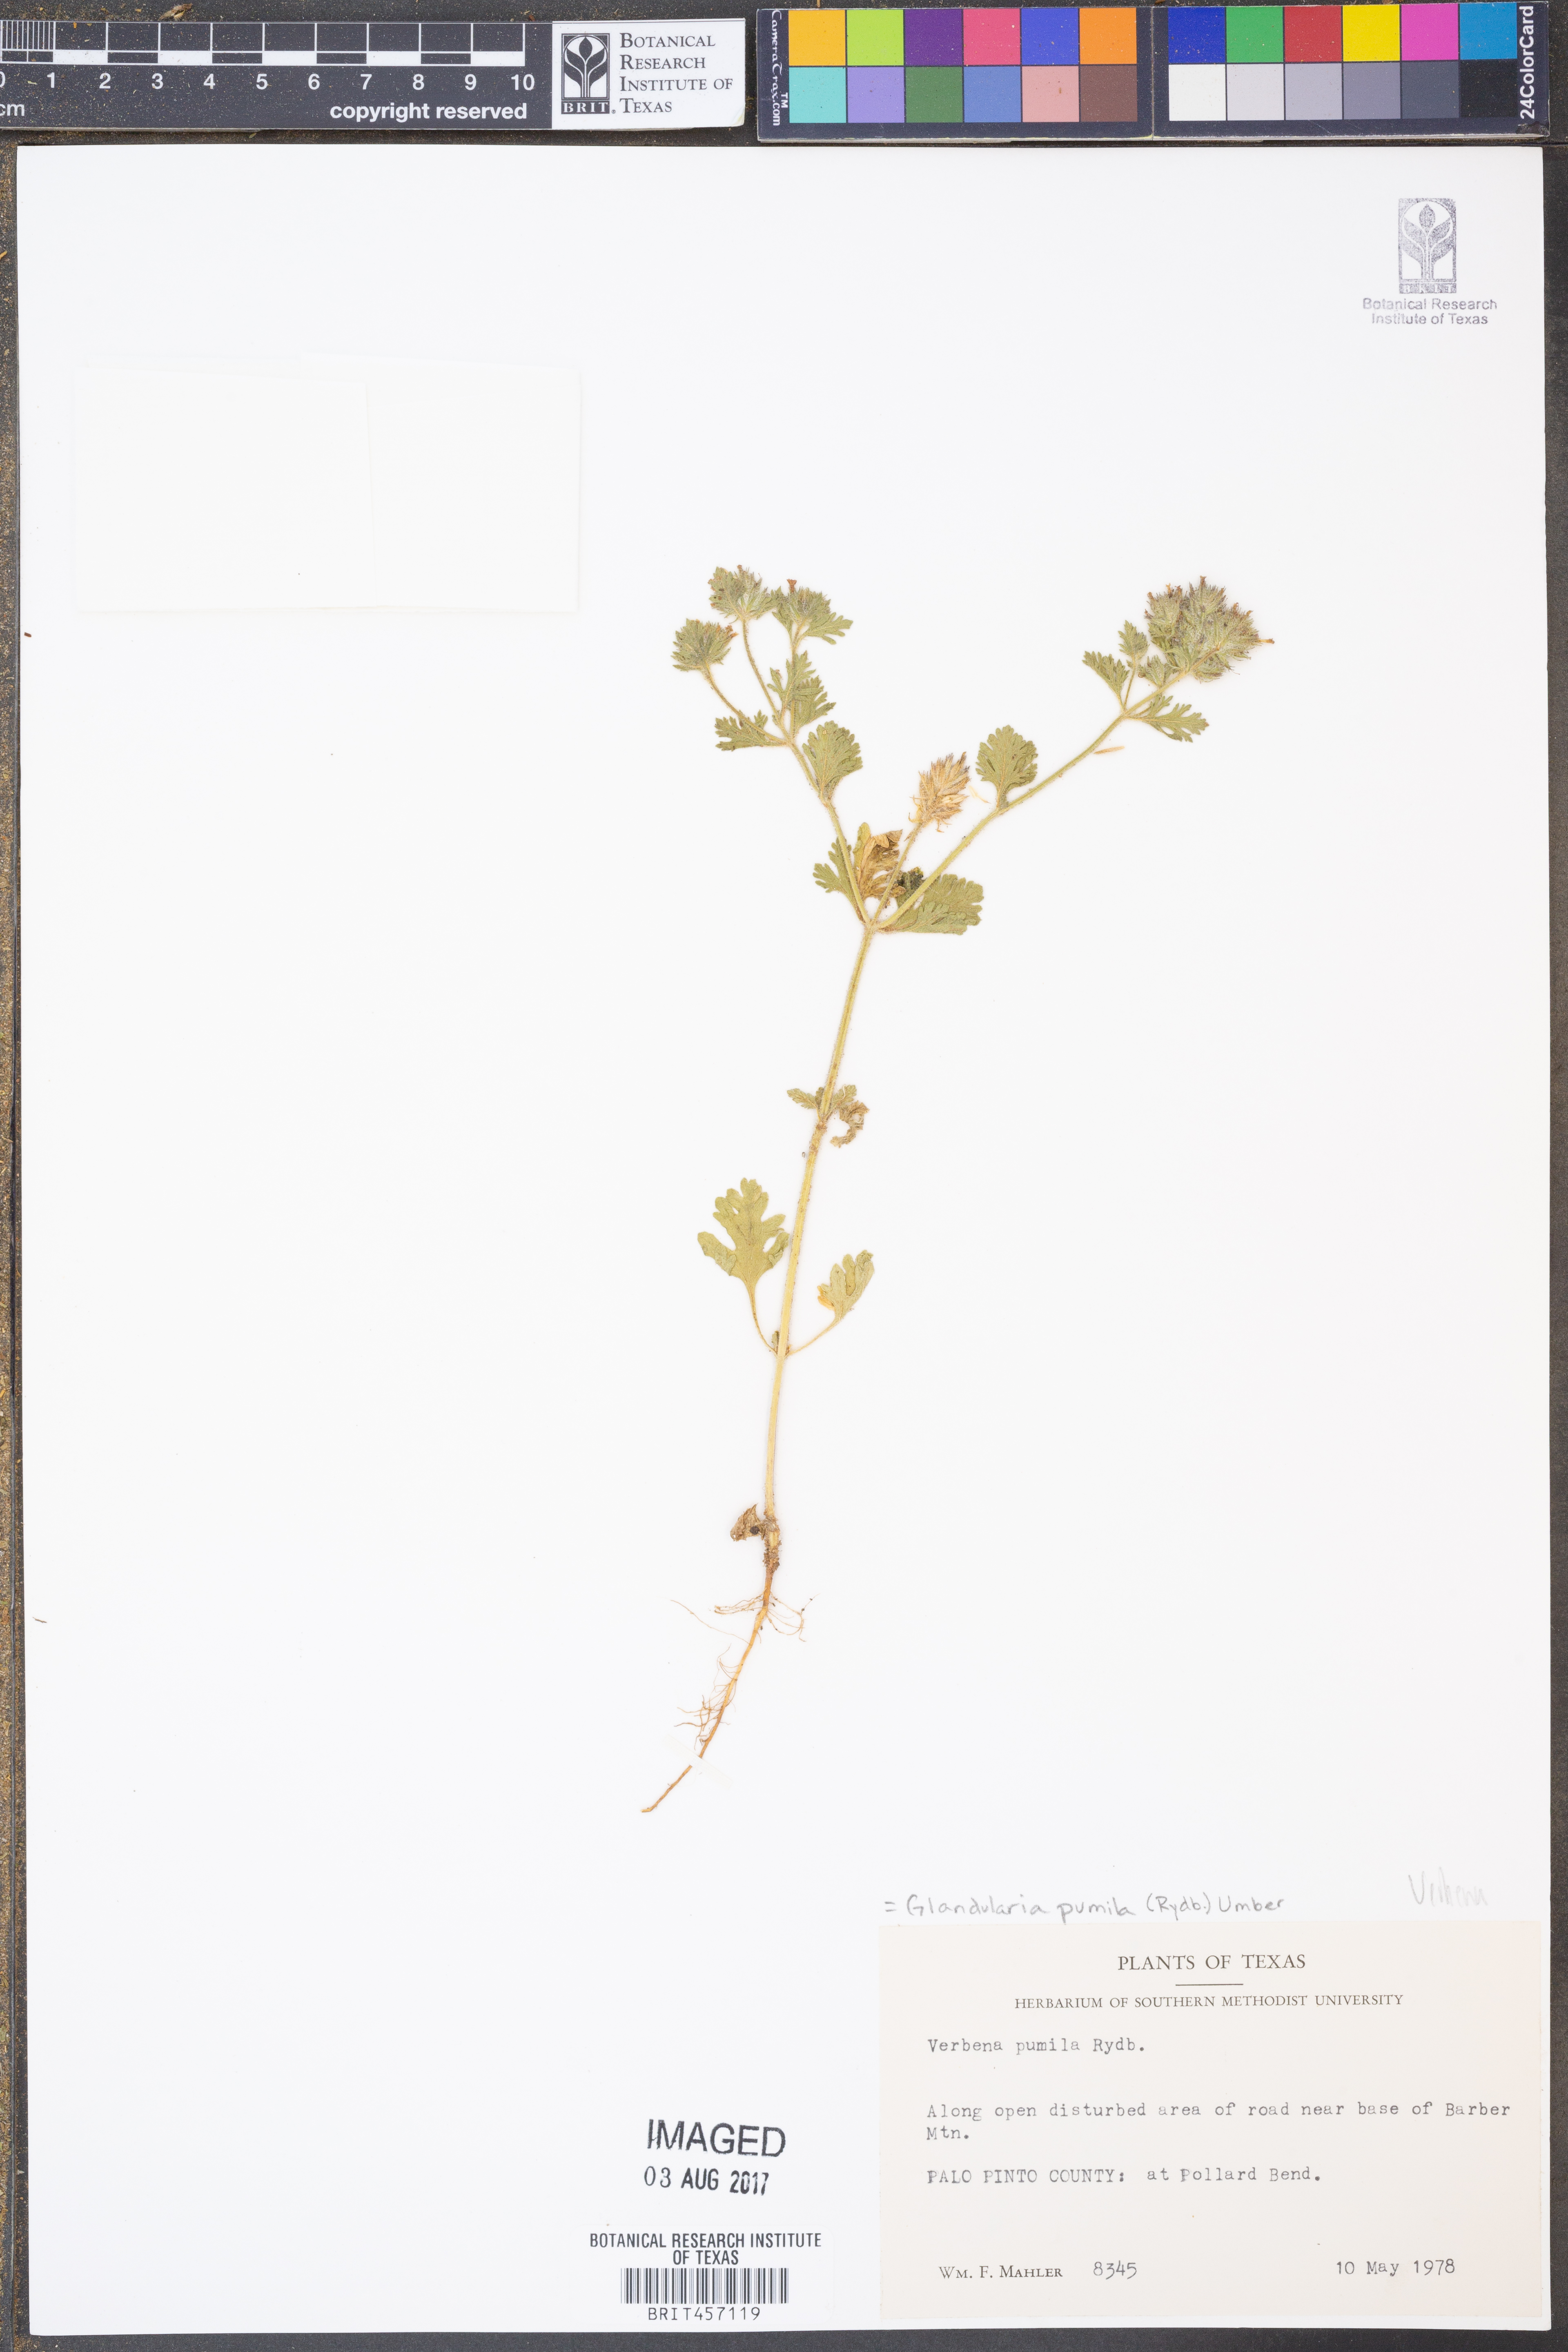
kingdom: Plantae
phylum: Tracheophyta
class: Magnoliopsida
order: Lamiales
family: Verbenaceae
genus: Verbena
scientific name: Verbena pumila
